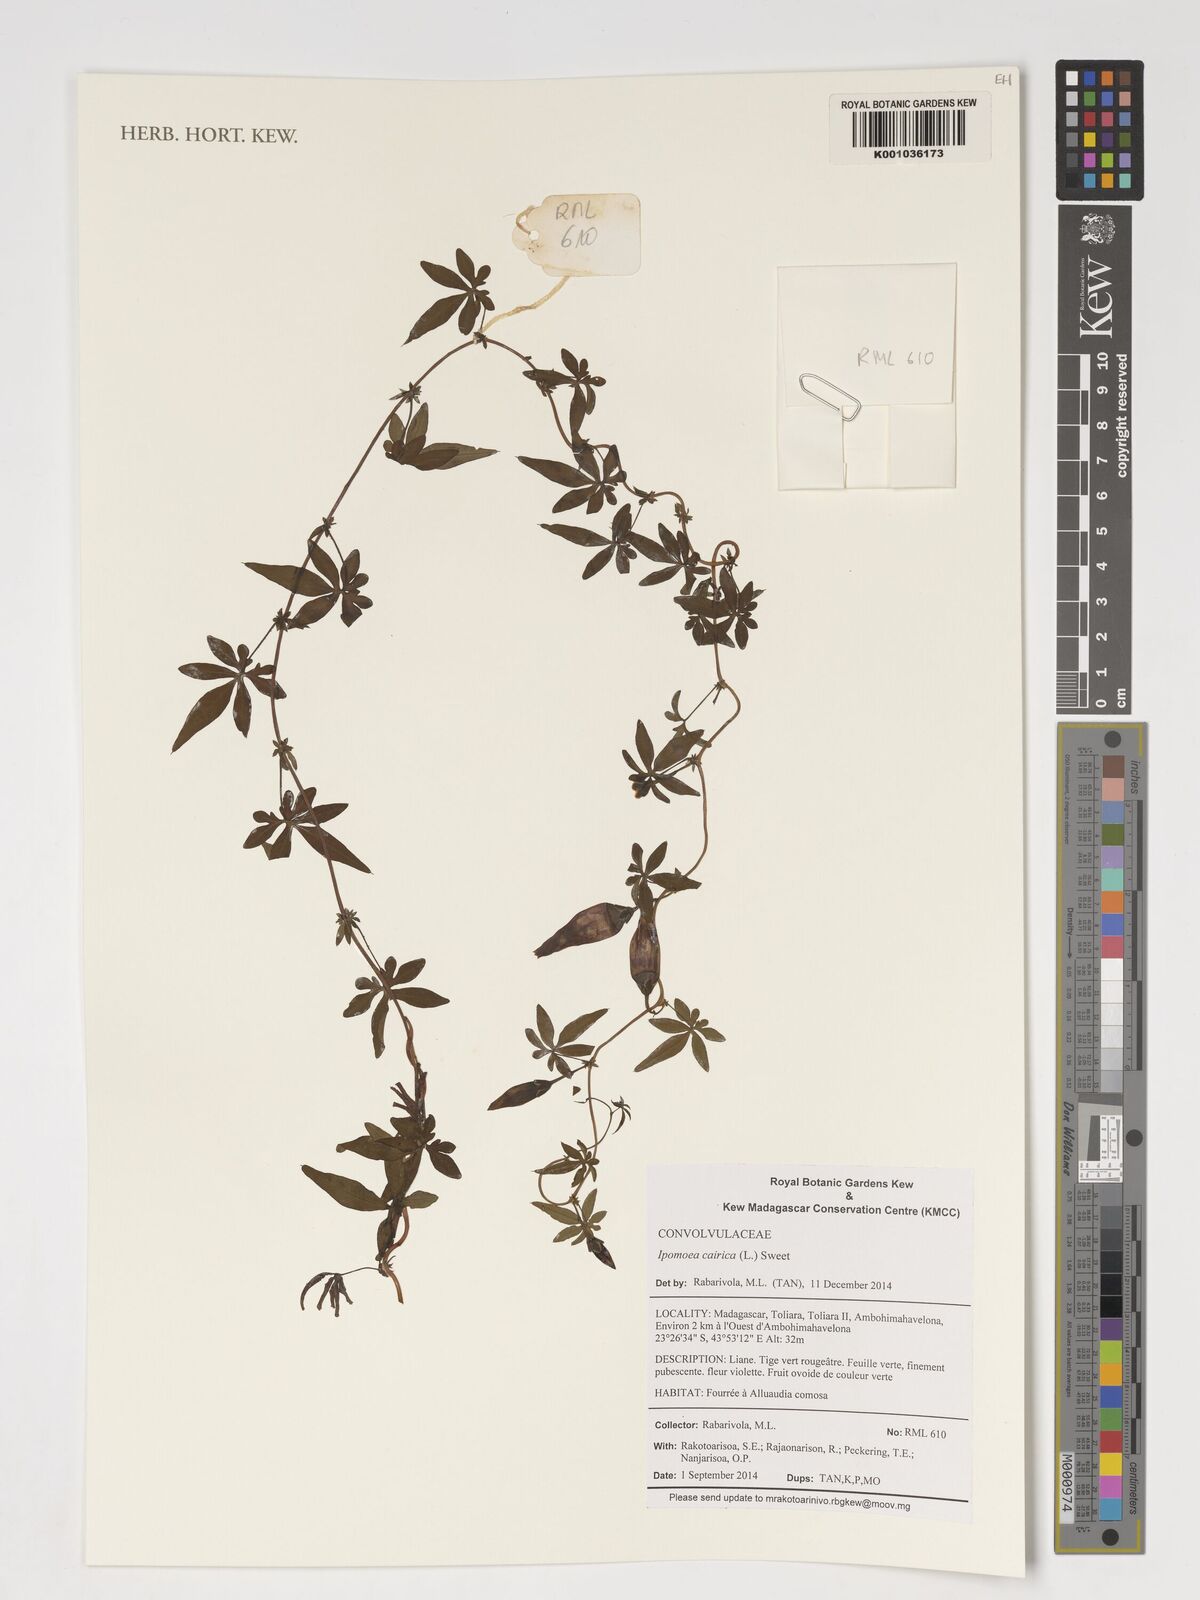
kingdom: Plantae
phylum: Tracheophyta
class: Magnoliopsida
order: Solanales
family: Convolvulaceae
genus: Ipomoea
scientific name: Ipomoea cairica
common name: Mile a minute vine
